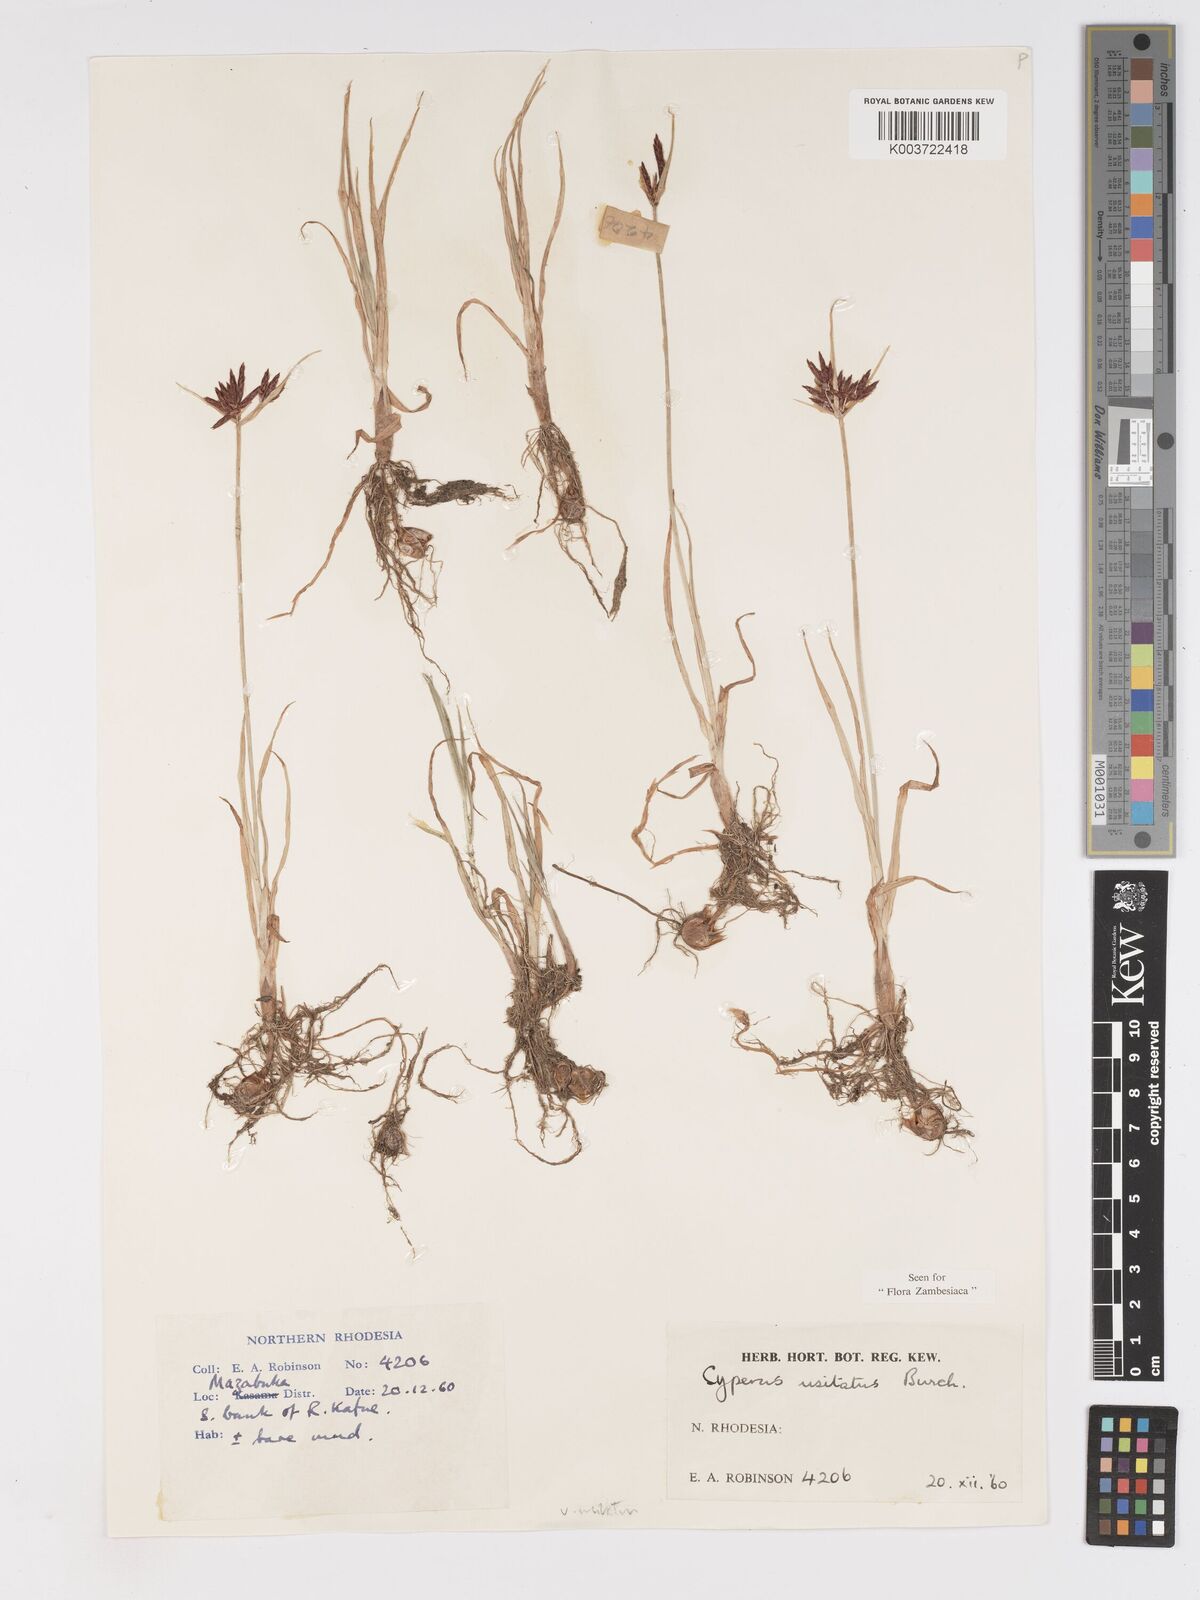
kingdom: Plantae
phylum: Tracheophyta
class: Liliopsida
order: Poales
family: Cyperaceae
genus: Cyperus
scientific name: Cyperus usitatus
